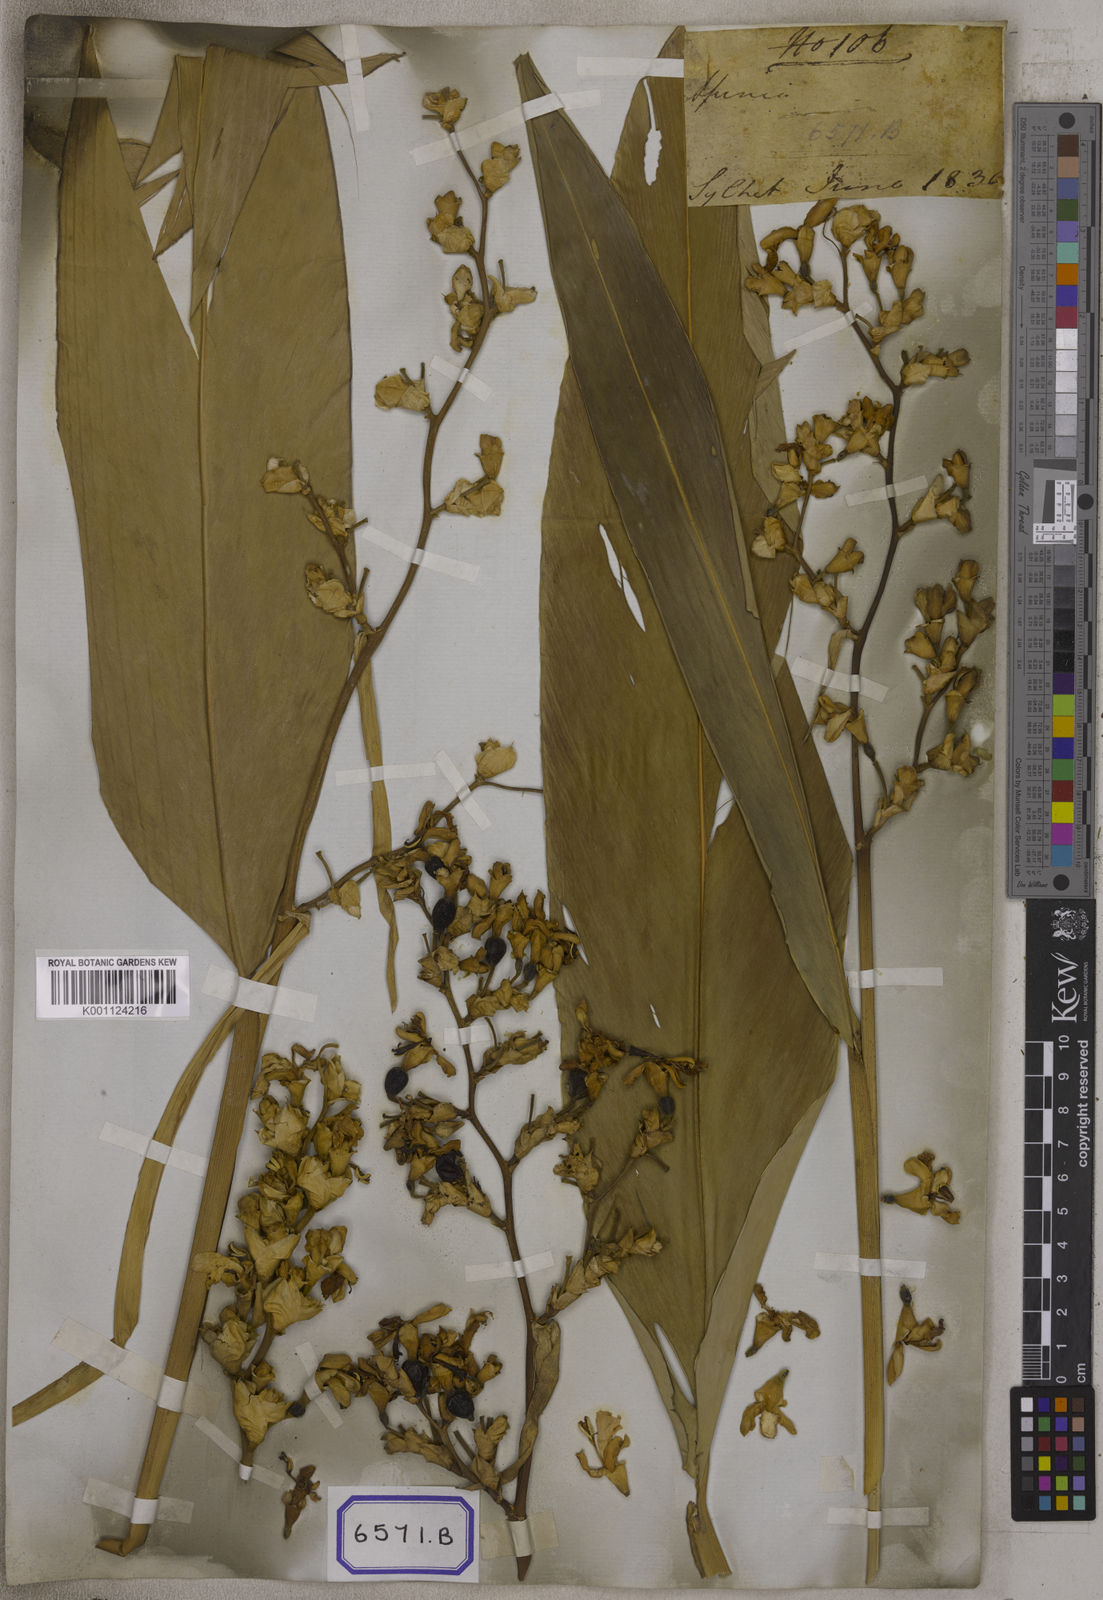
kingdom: Plantae
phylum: Tracheophyta
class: Liliopsida
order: Zingiberales
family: Zingiberaceae
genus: Alpinia
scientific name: Alpinia nigra
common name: Black fruited galanga
